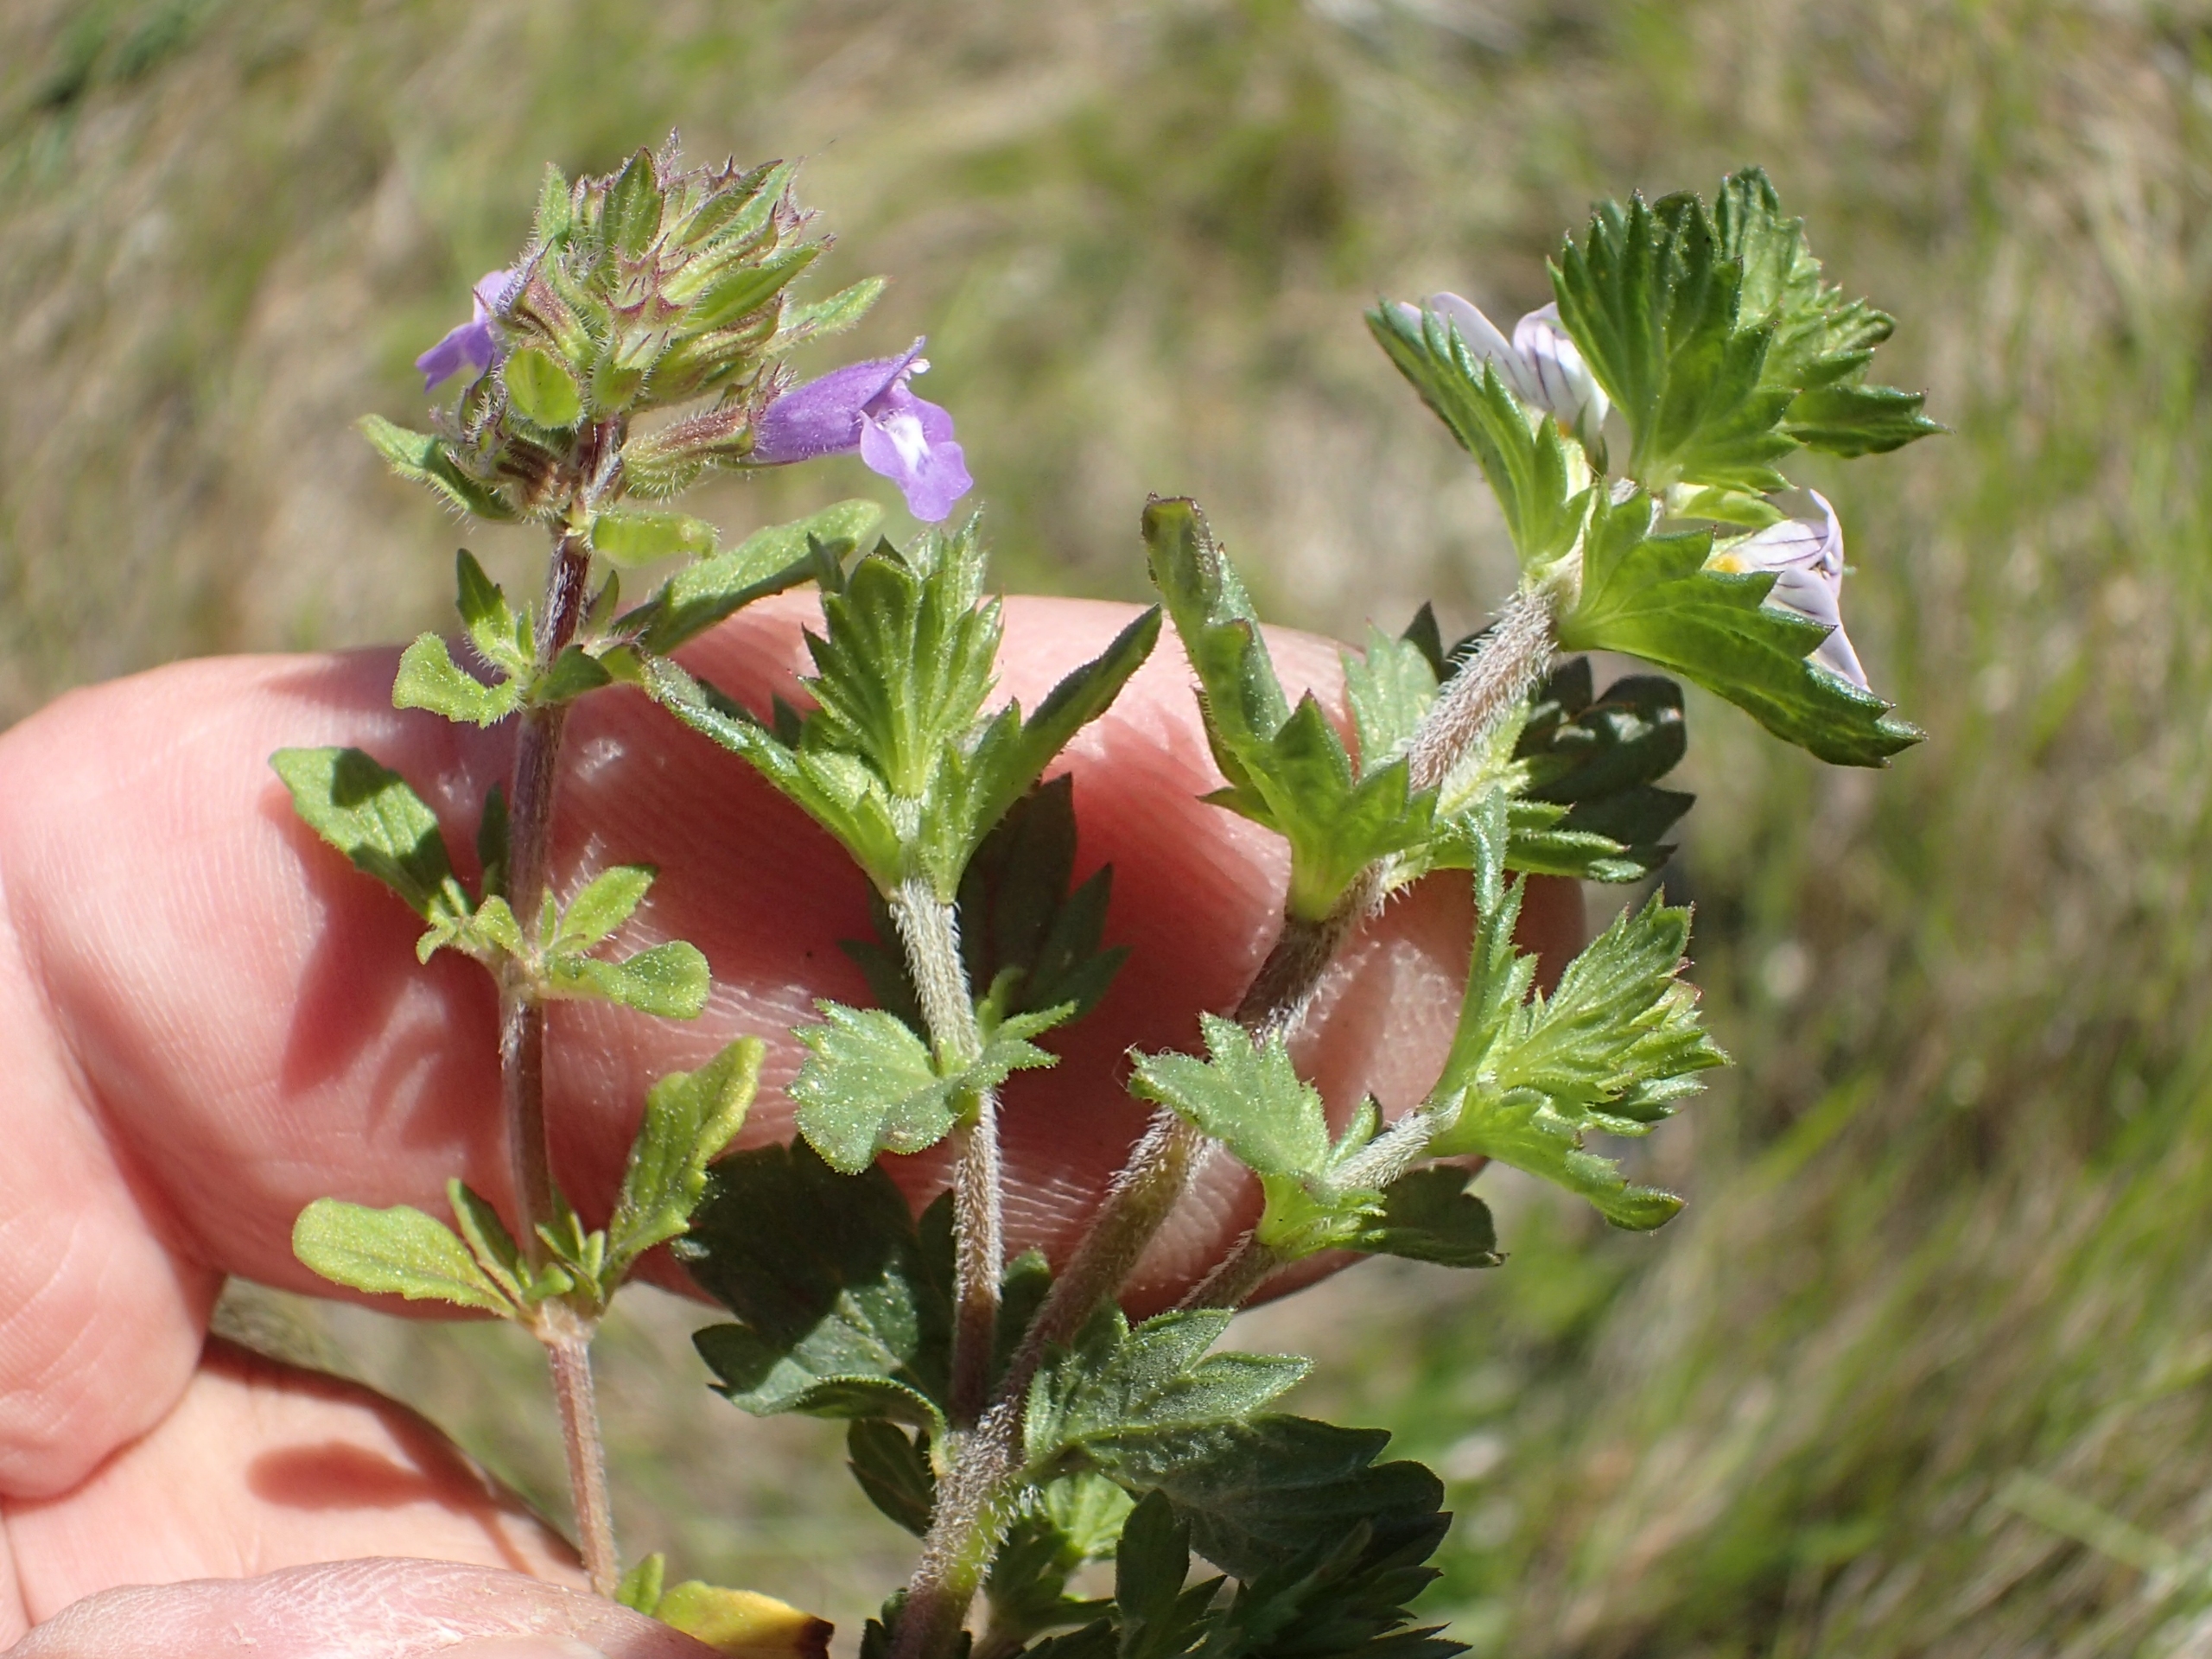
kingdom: Plantae
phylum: Tracheophyta
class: Magnoliopsida
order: Lamiales
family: Orobanchaceae
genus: Euphrasia
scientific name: Euphrasia nemorosa
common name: Kort øjentrøst
